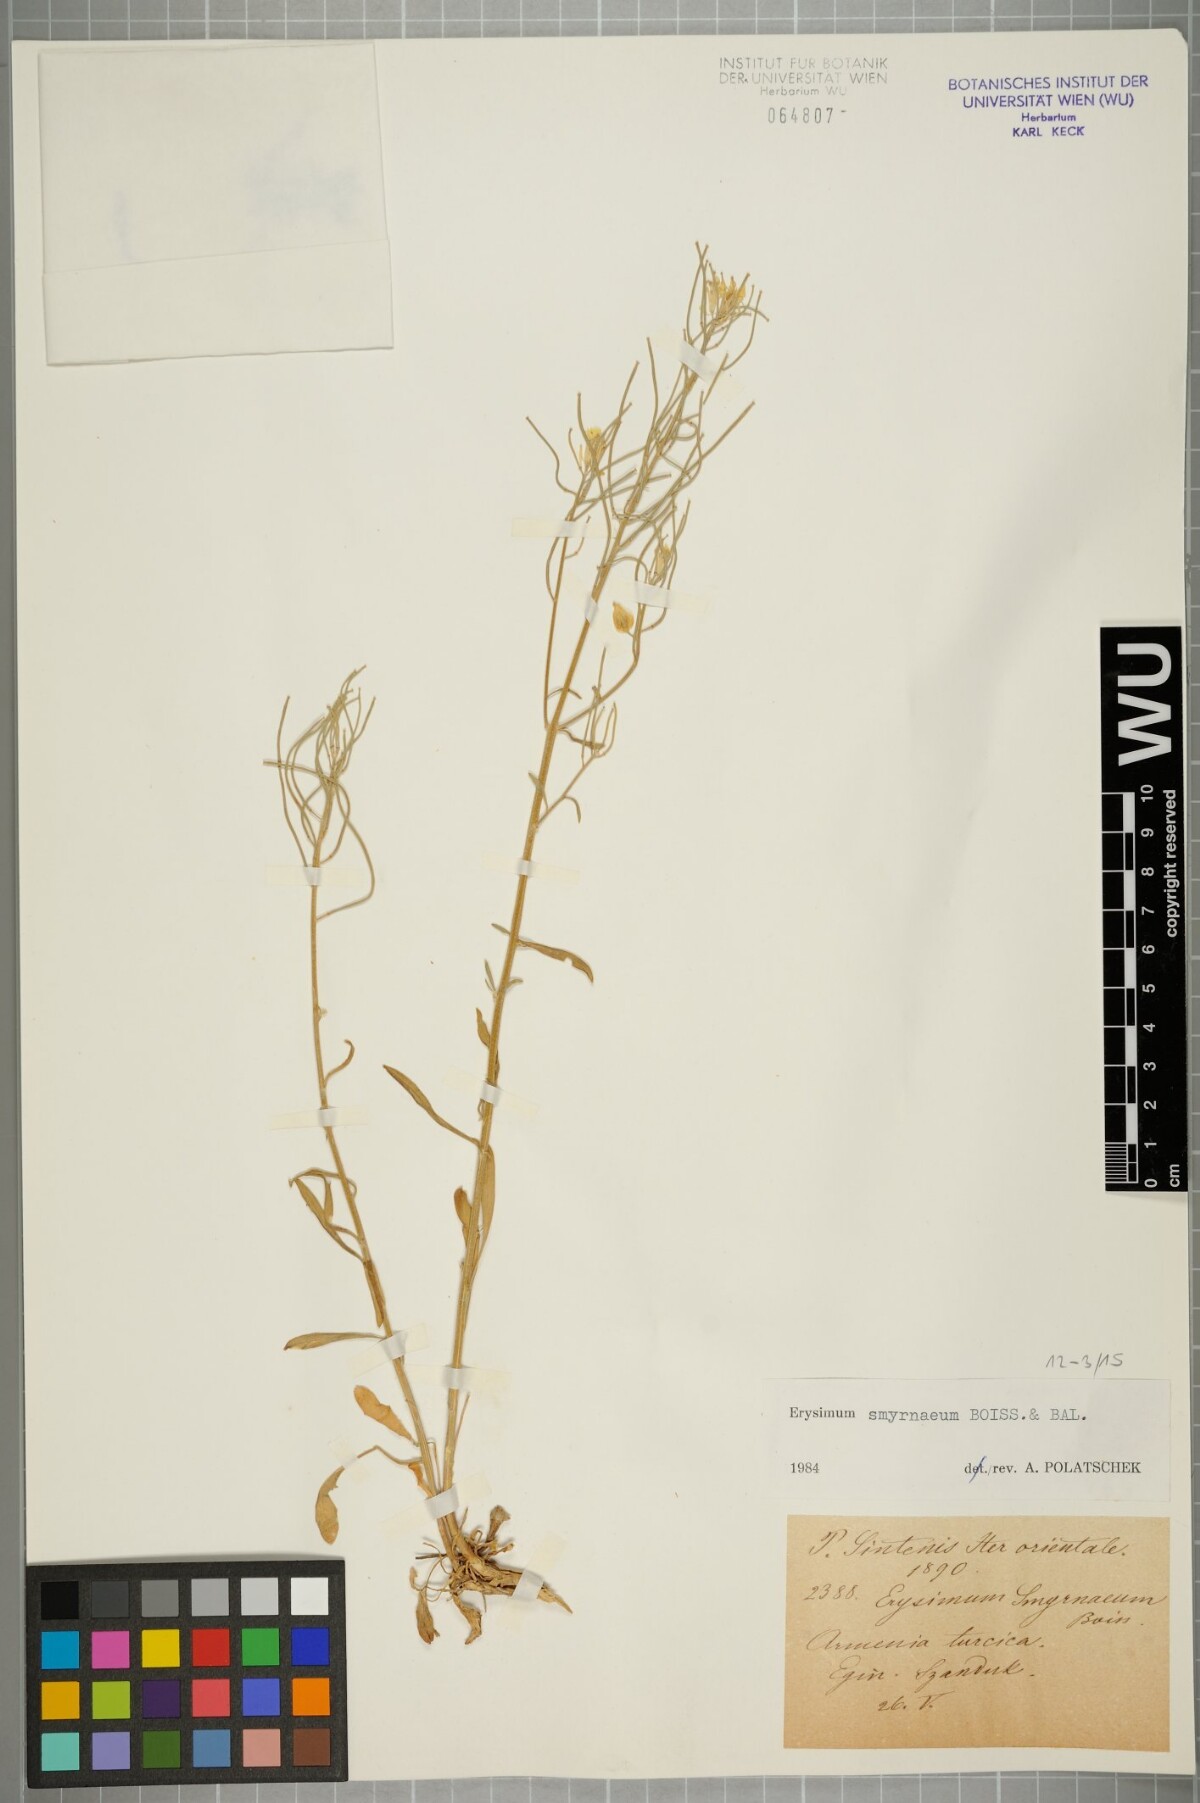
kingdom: Plantae
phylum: Tracheophyta
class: Magnoliopsida
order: Brassicales
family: Brassicaceae
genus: Erysimum
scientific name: Erysimum smyrnaeum
